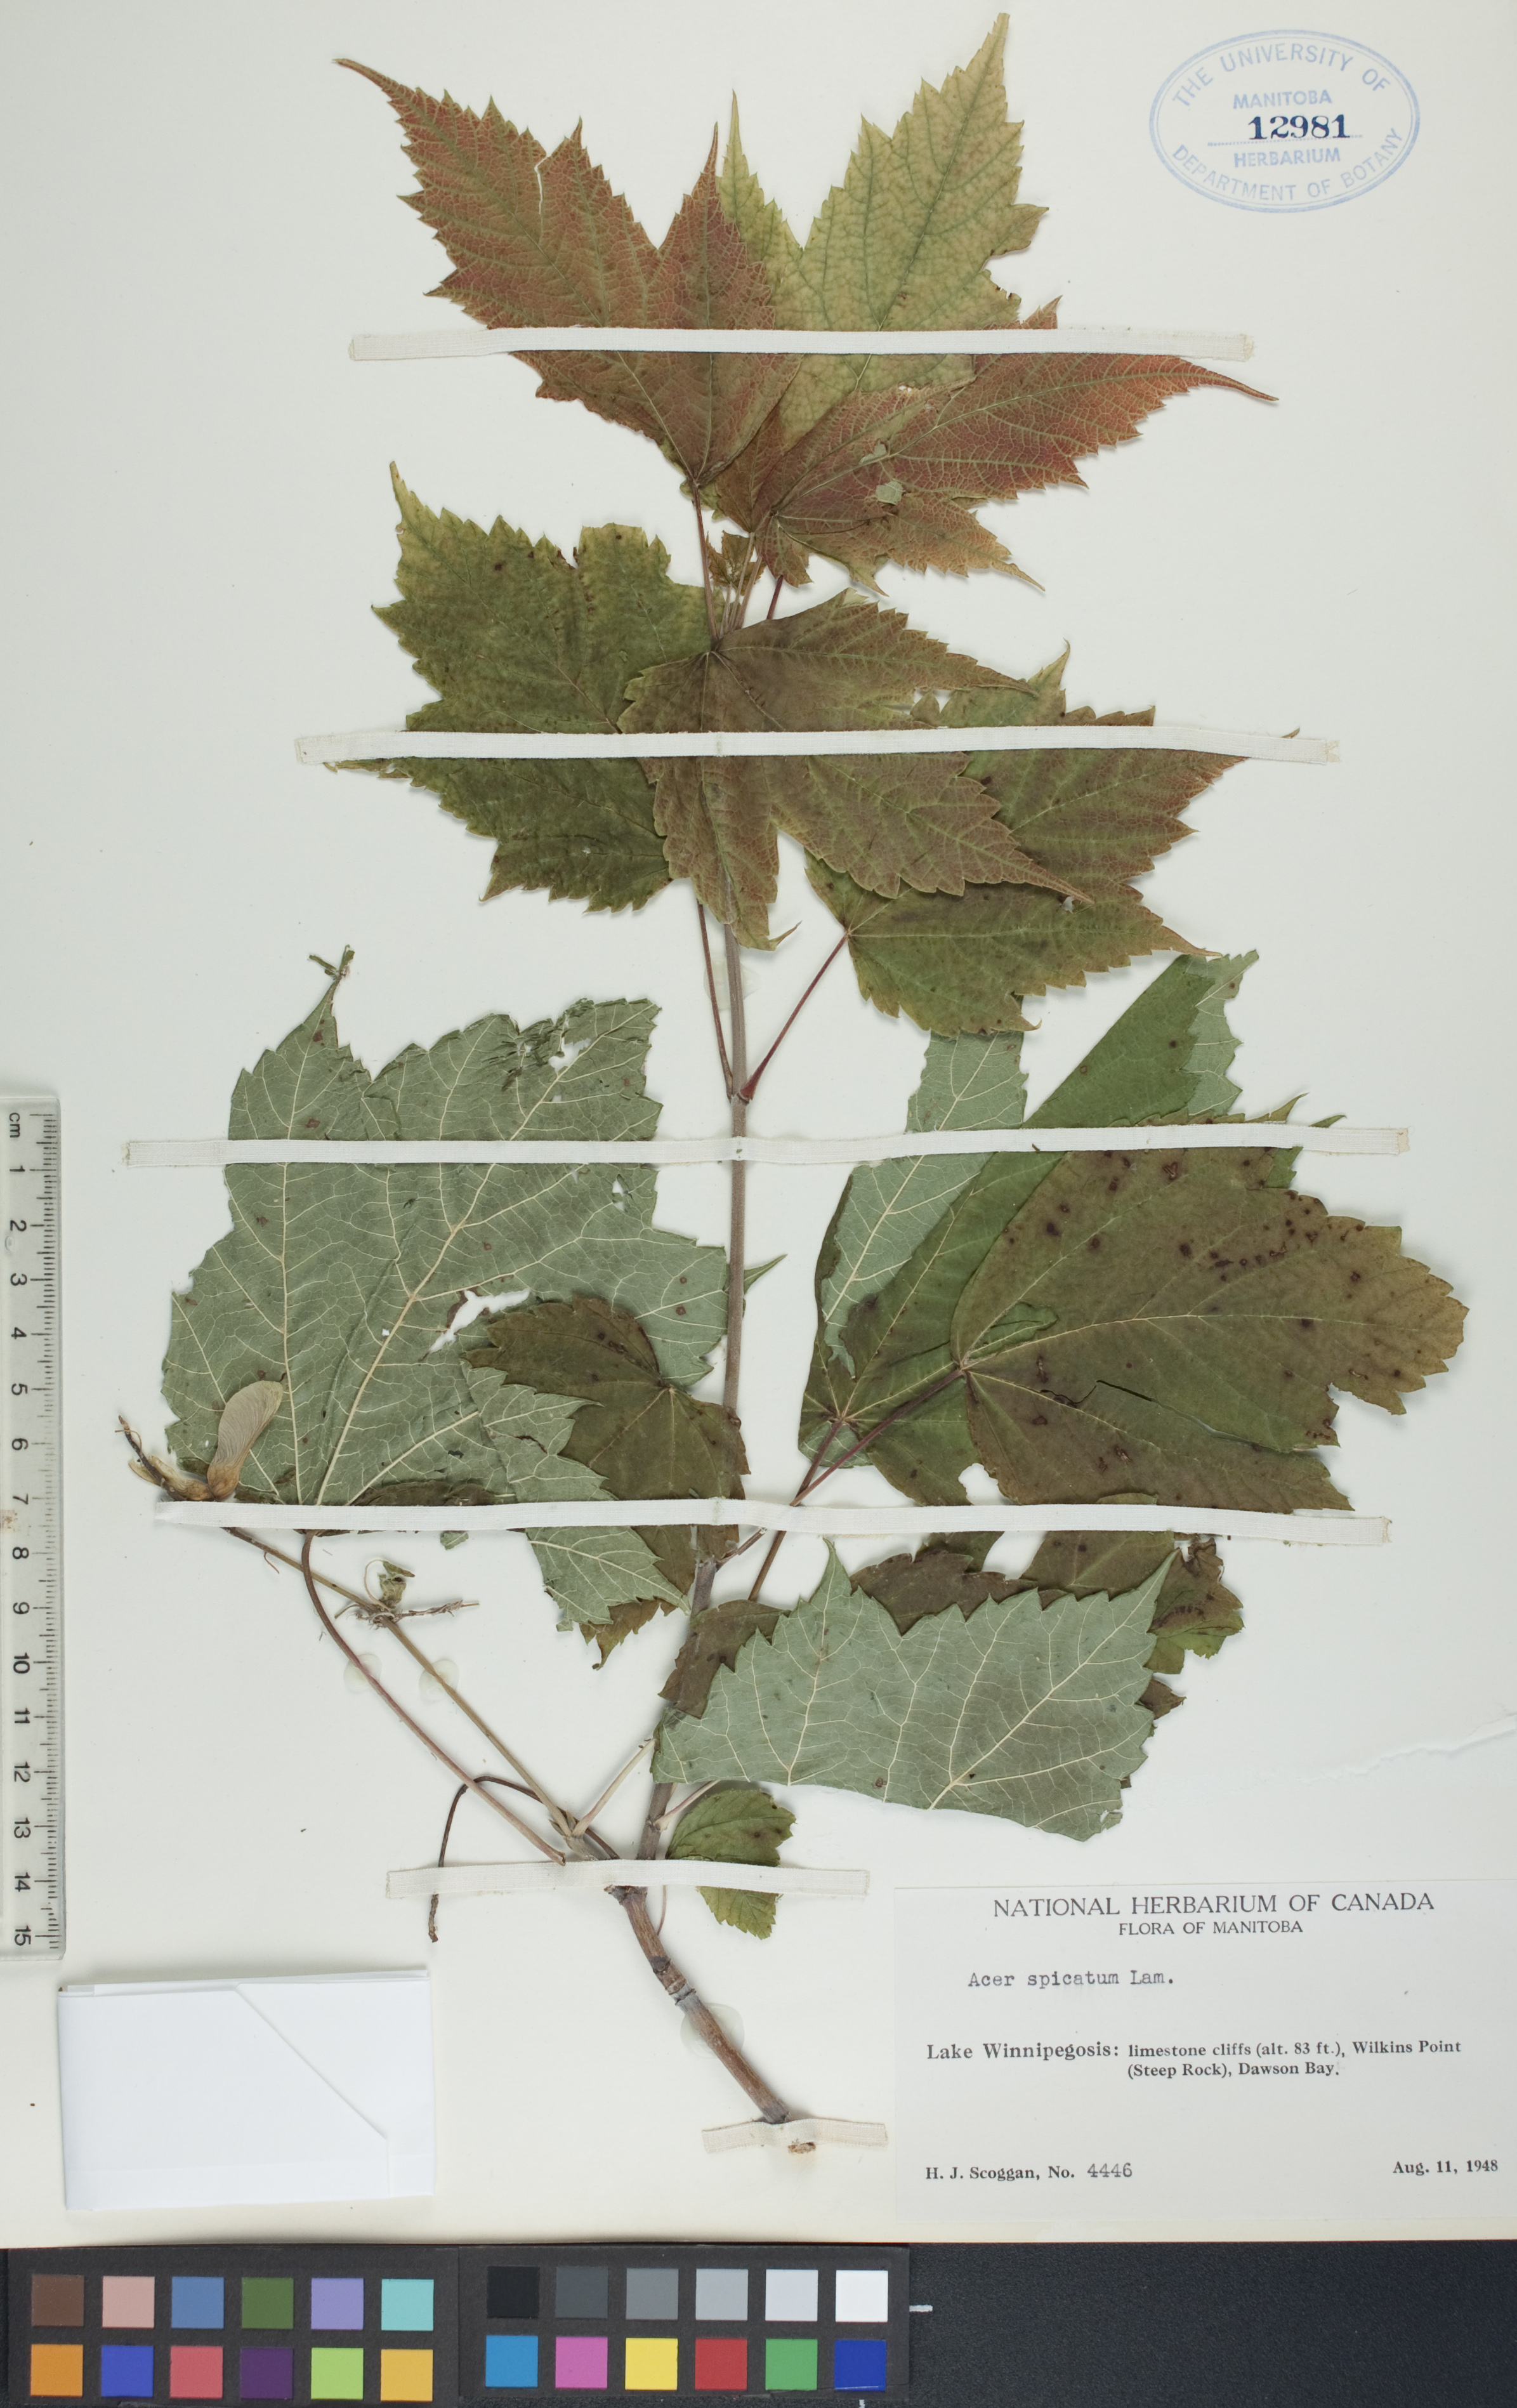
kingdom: Plantae
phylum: Tracheophyta
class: Magnoliopsida
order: Sapindales
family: Sapindaceae
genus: Acer
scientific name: Acer spicatum
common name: Mountain maple
